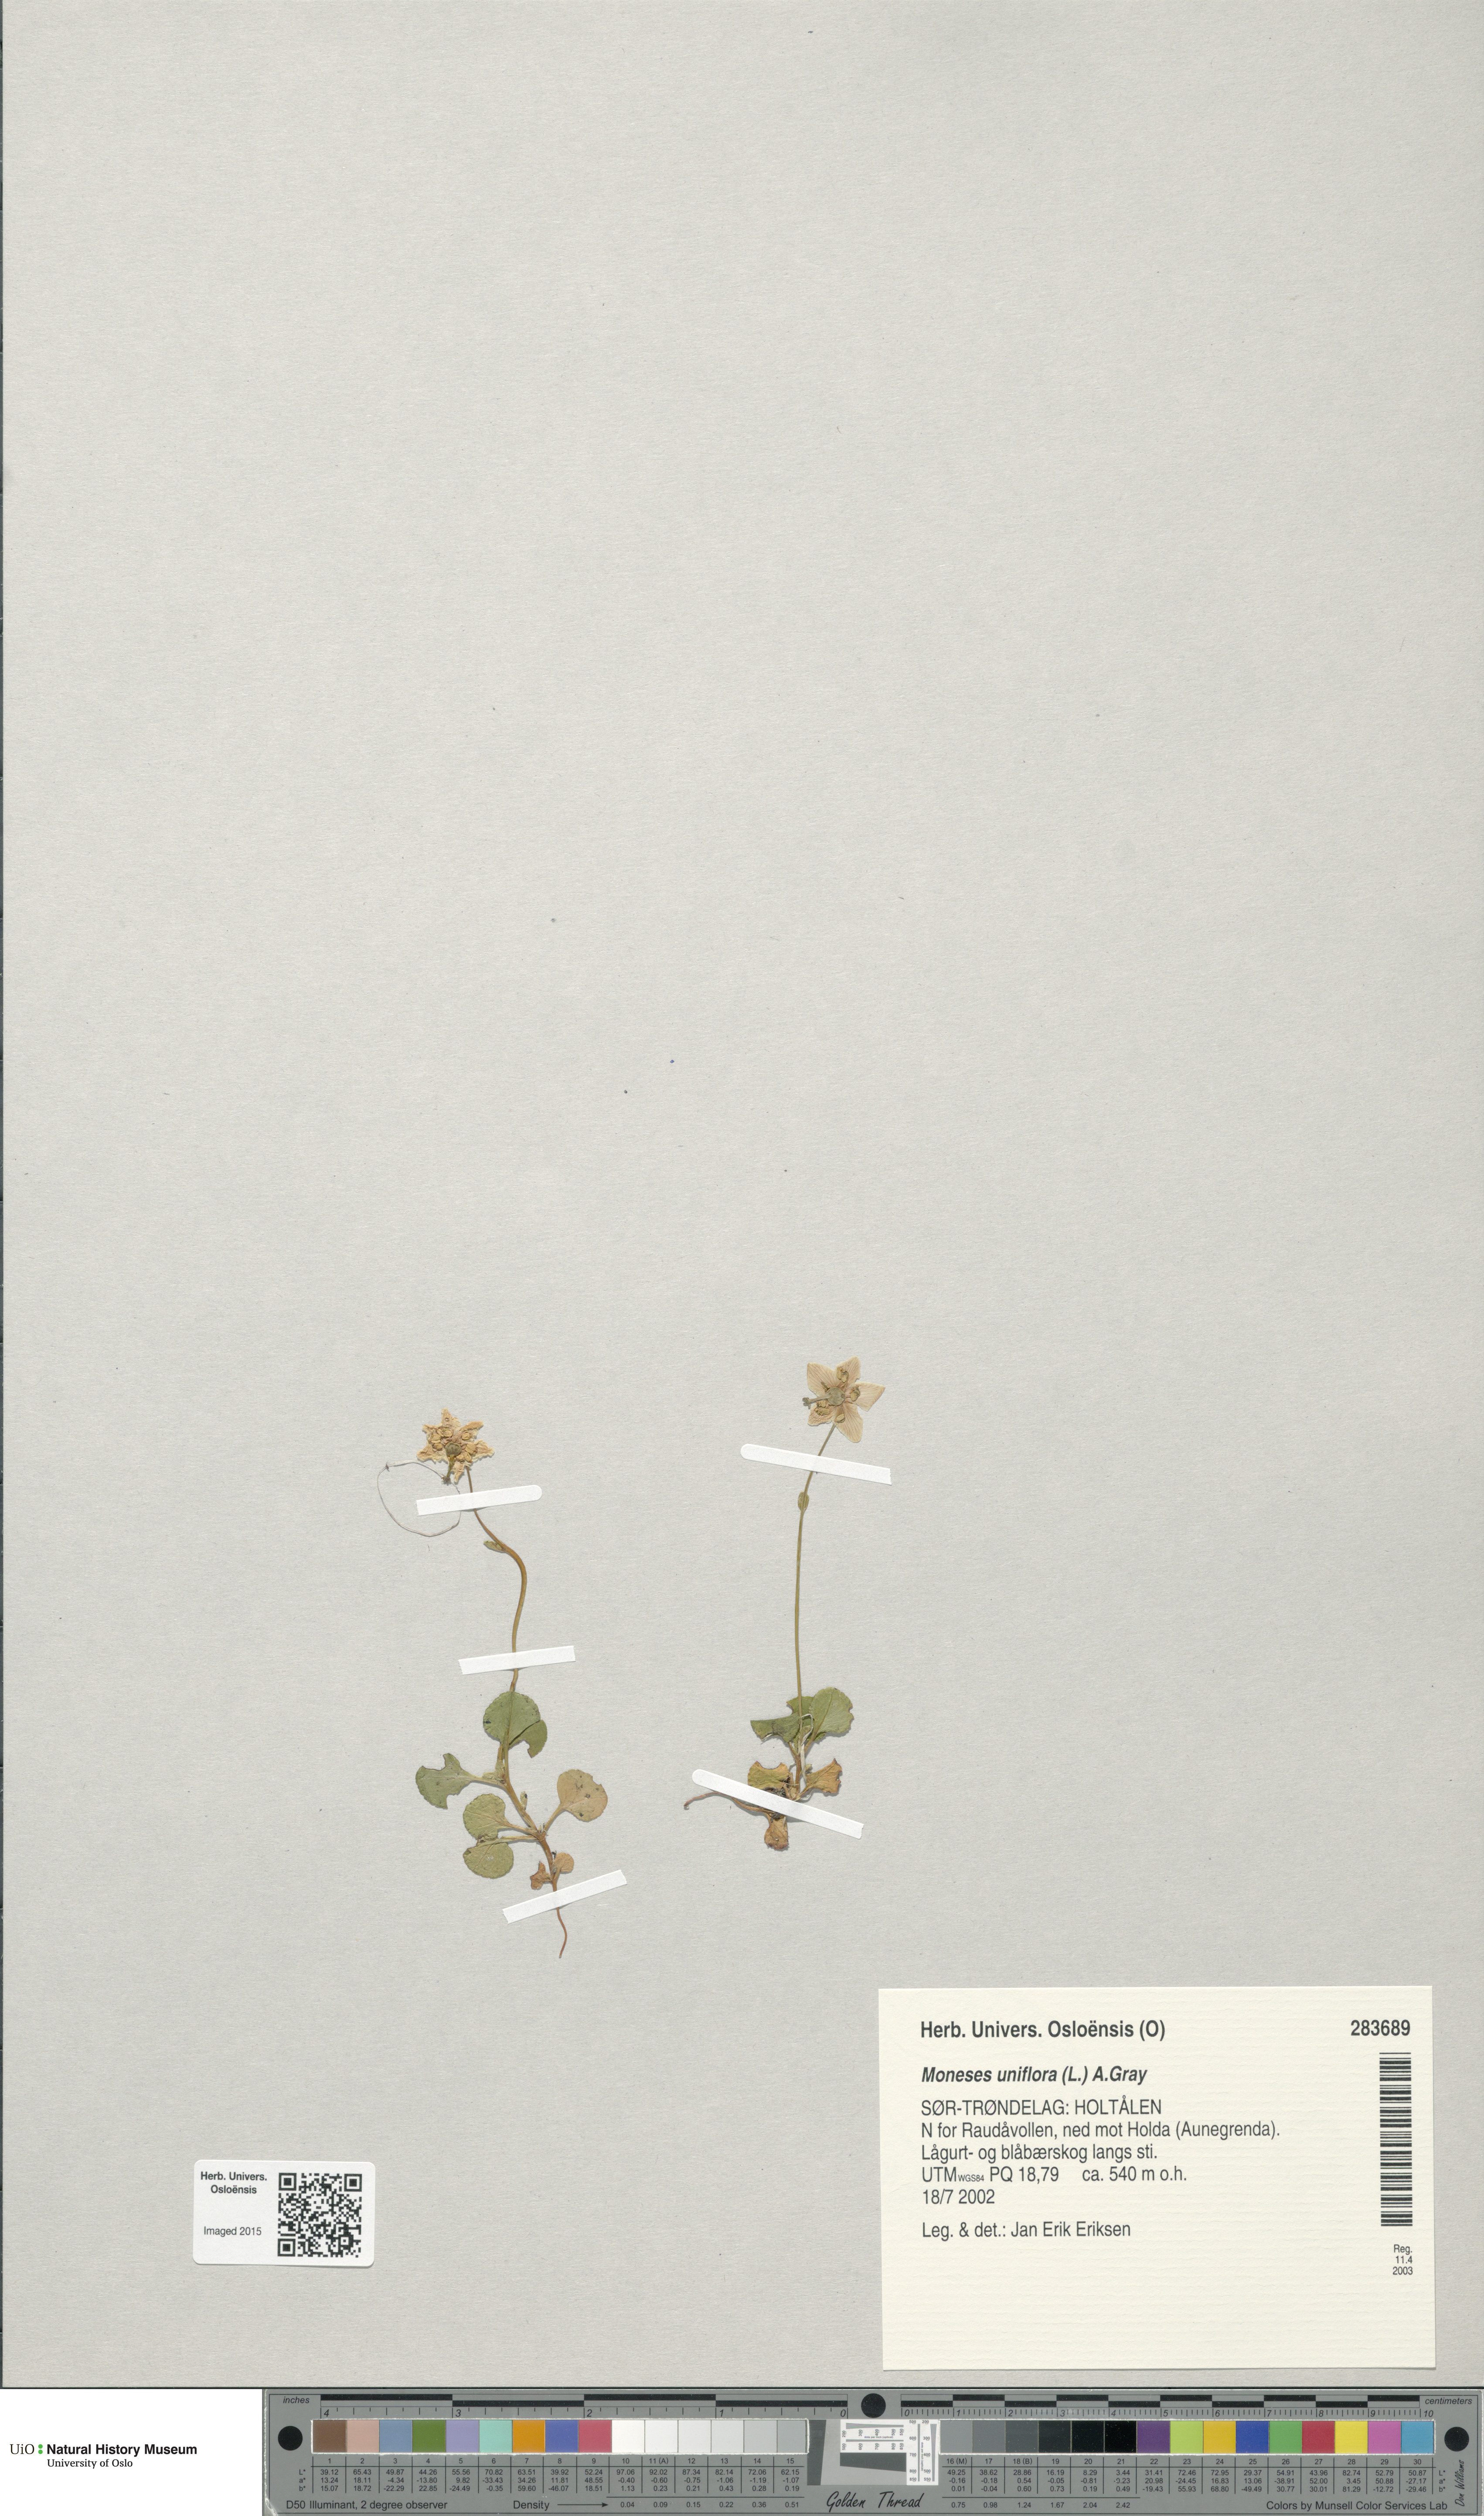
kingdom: Plantae
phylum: Tracheophyta
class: Magnoliopsida
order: Ericales
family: Ericaceae
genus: Moneses
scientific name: Moneses uniflora
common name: One-flowered wintergreen
